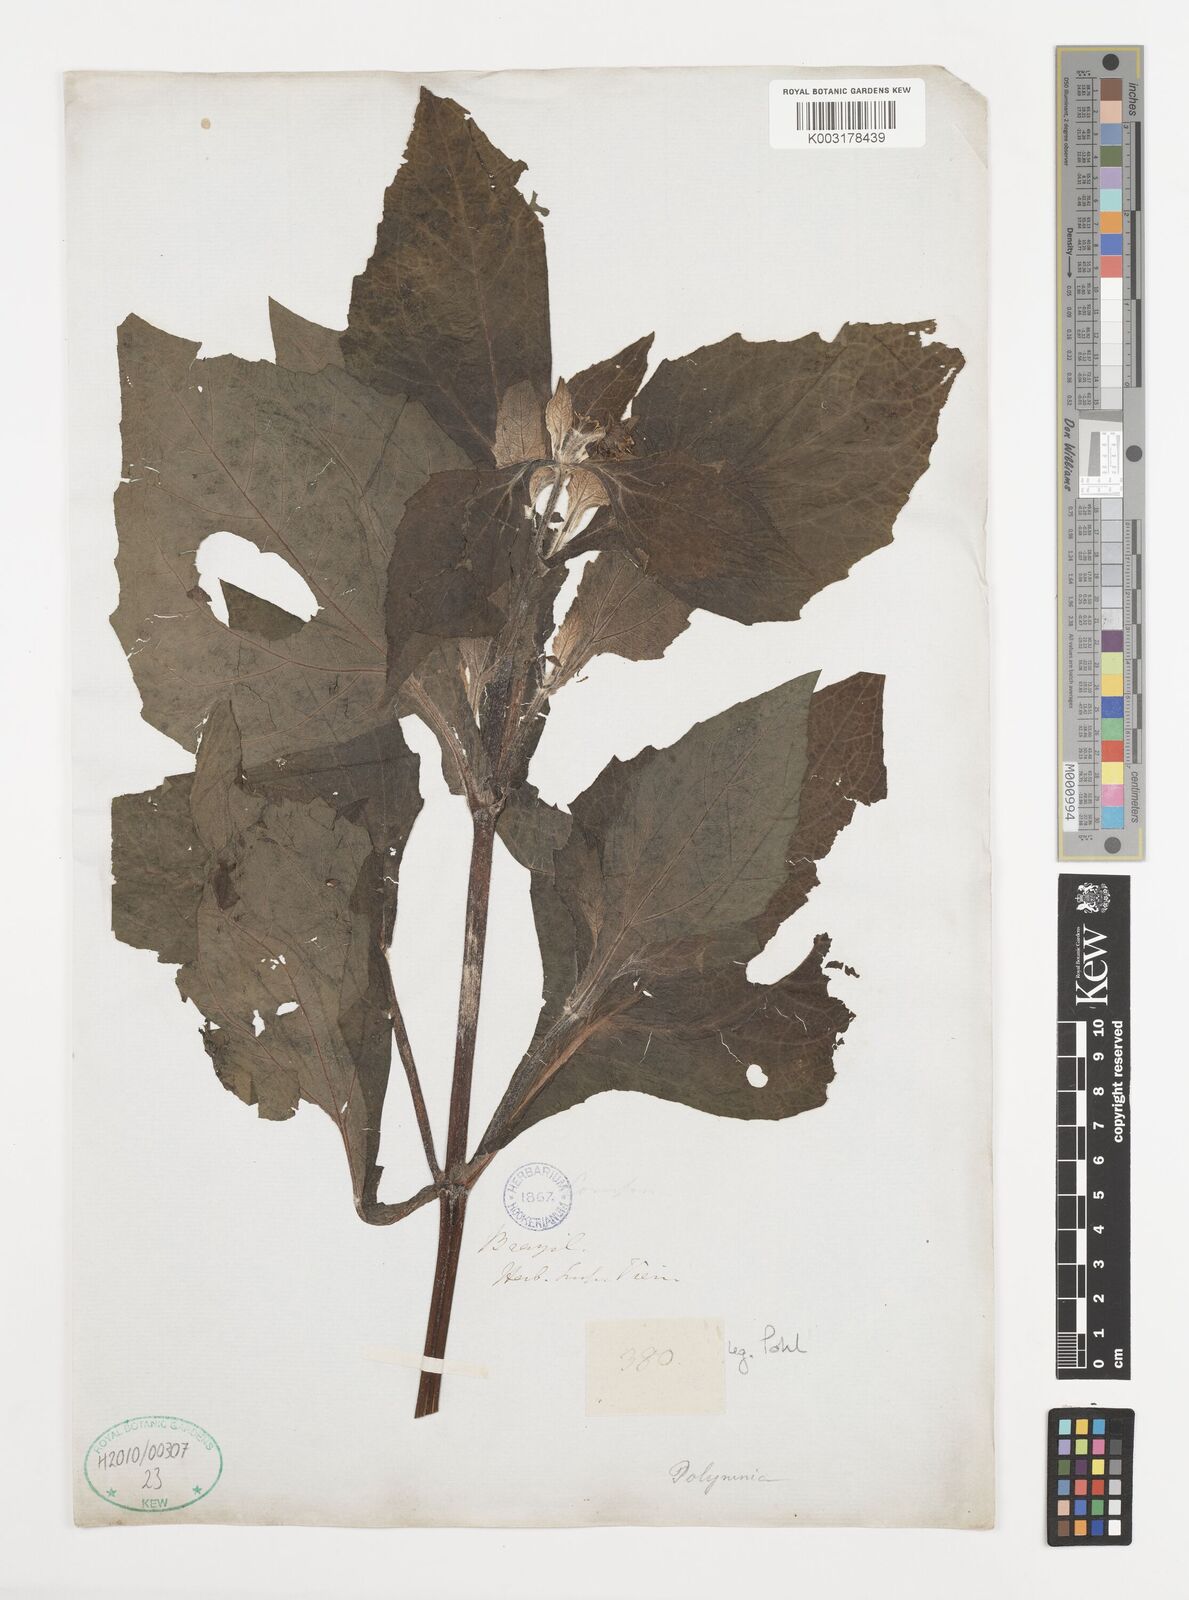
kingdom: Plantae
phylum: Tracheophyta
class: Magnoliopsida
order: Asterales
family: Asteraceae
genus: Smallanthus
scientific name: Smallanthus
